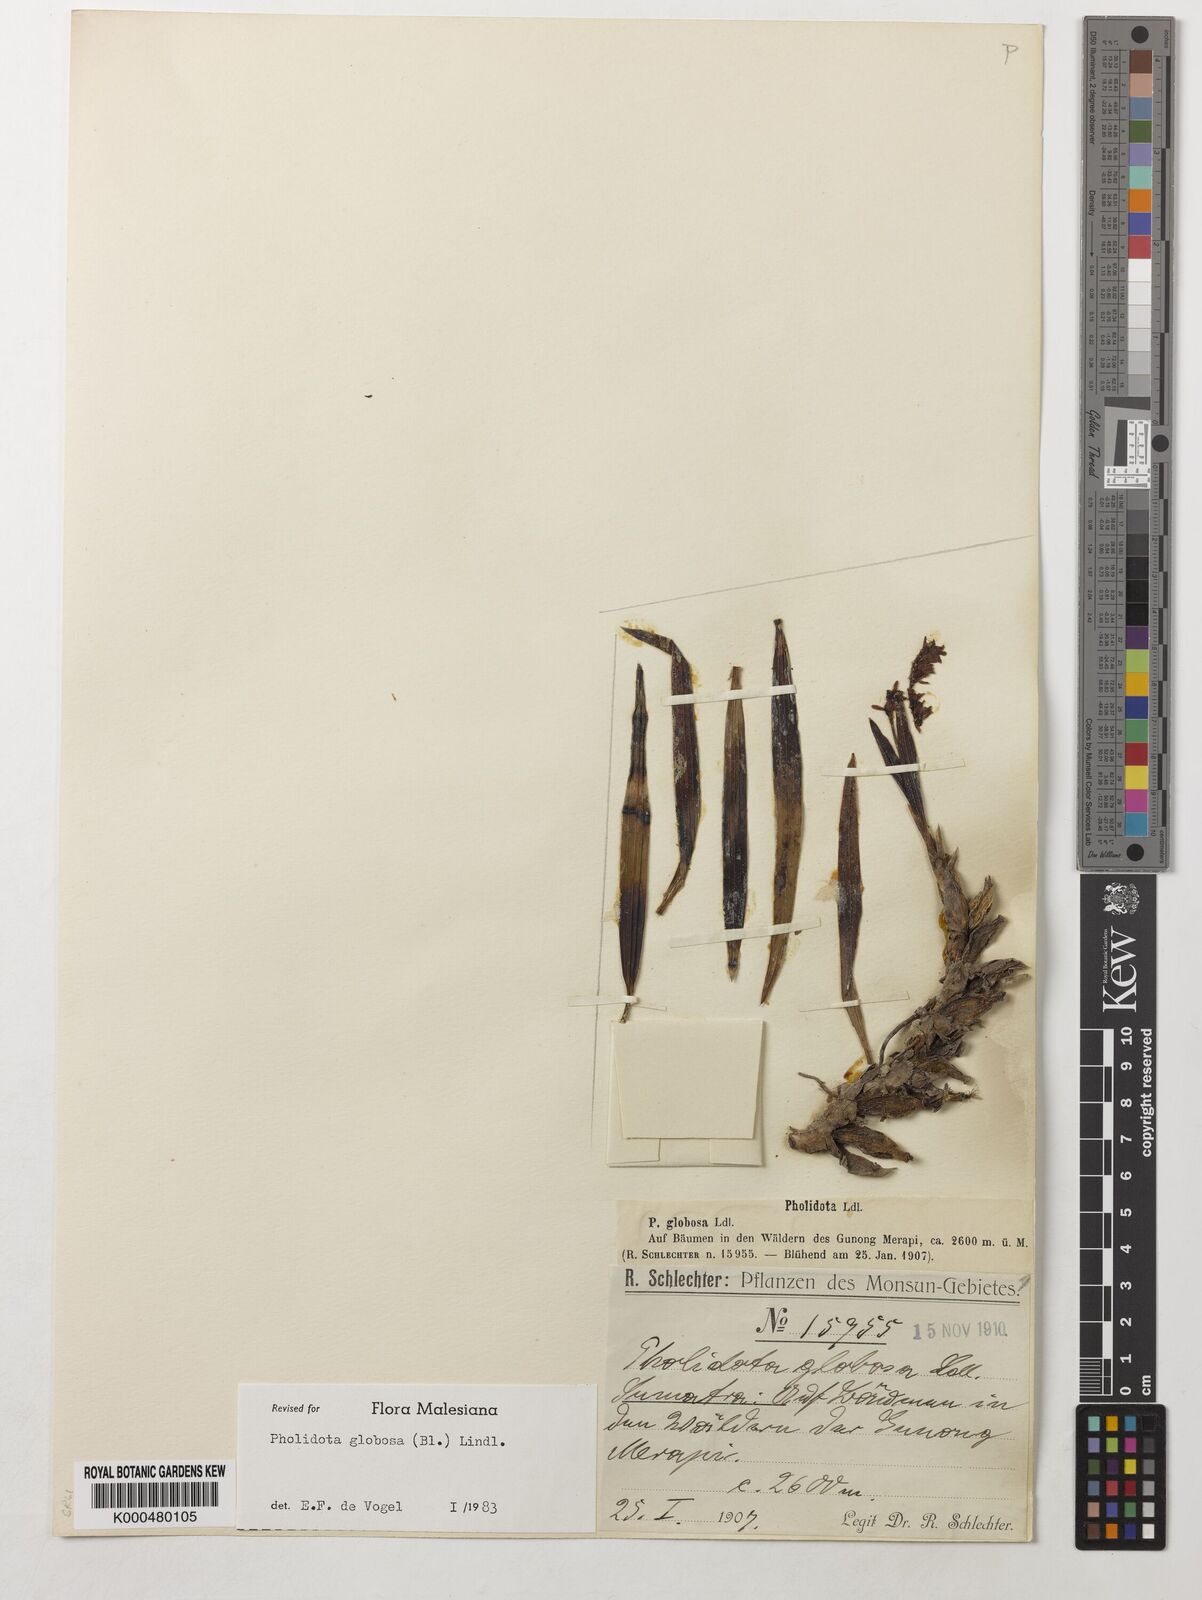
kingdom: Plantae
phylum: Tracheophyta
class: Liliopsida
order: Asparagales
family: Orchidaceae
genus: Coelogyne
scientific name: Coelogyne globosa
